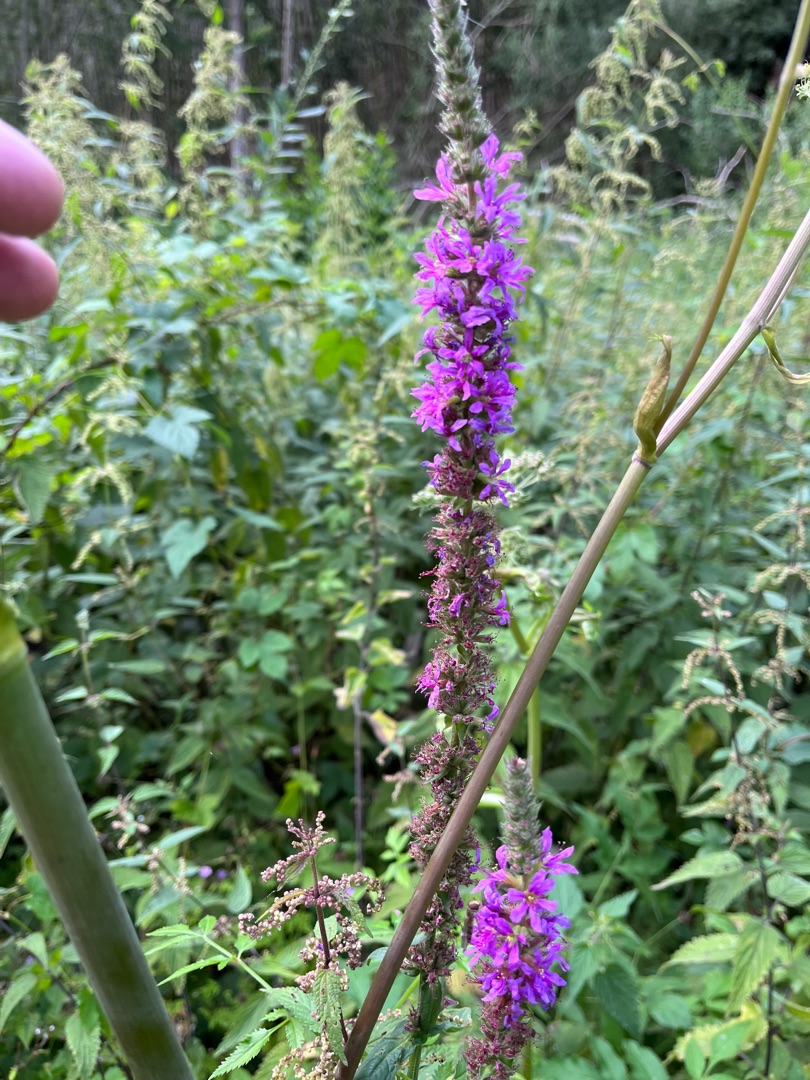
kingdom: Plantae
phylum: Tracheophyta
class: Magnoliopsida
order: Myrtales
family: Lythraceae
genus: Lythrum
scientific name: Lythrum salicaria
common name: Kattehale
